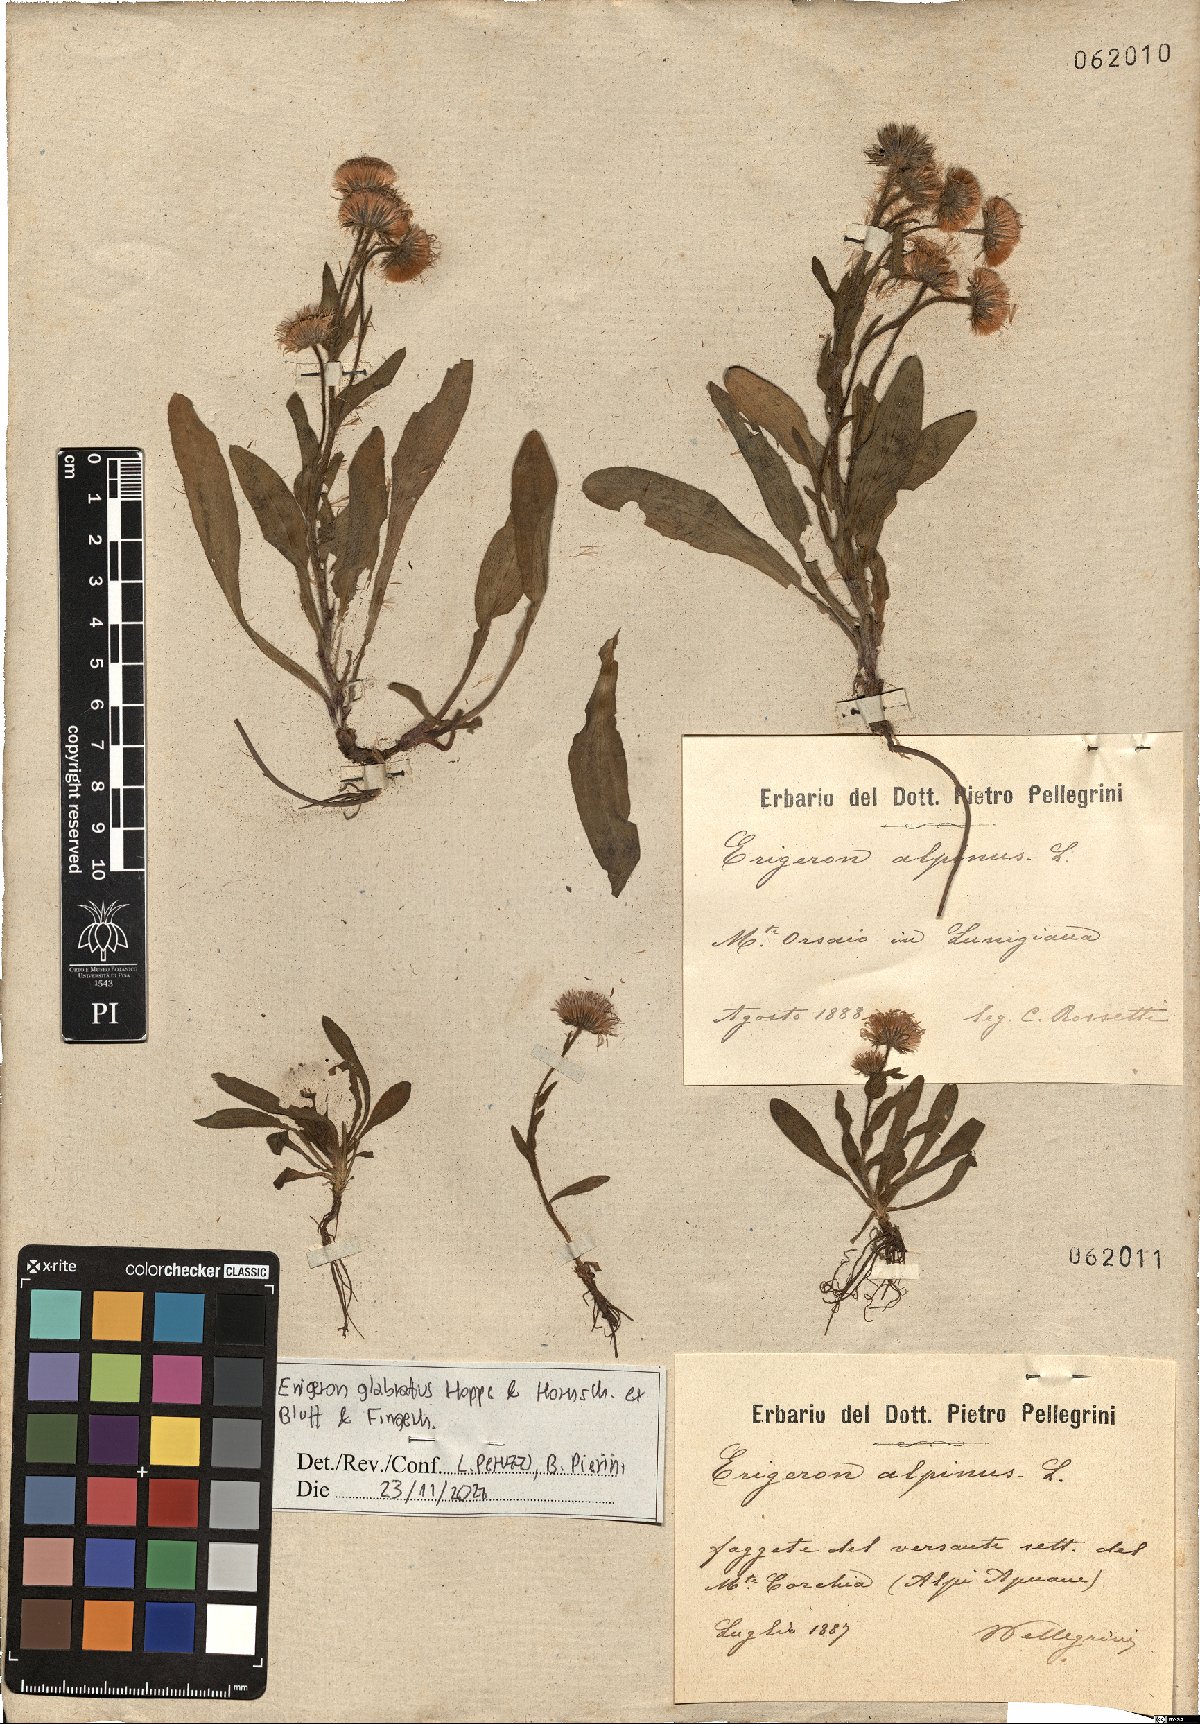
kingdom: Plantae
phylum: Tracheophyta
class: Magnoliopsida
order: Asterales
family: Asteraceae
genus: Erigeron
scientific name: Erigeron alpinus
